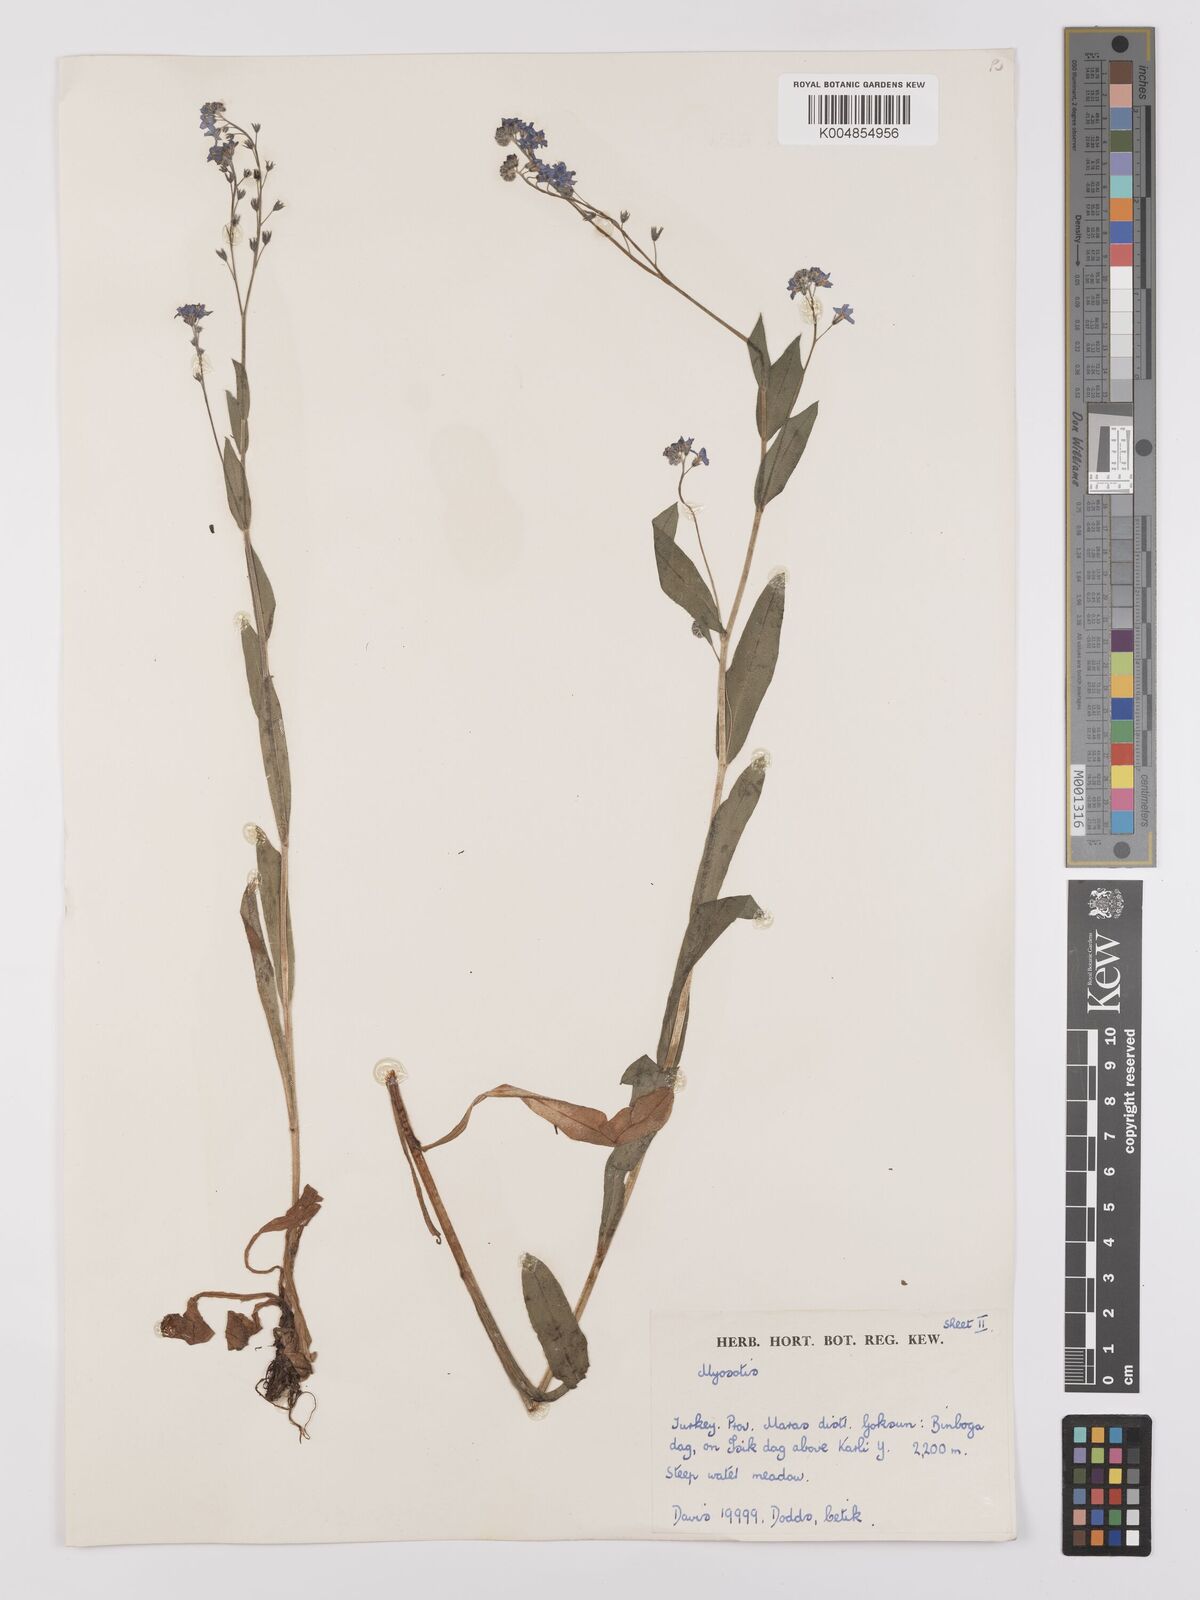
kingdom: Plantae
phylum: Tracheophyta
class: Magnoliopsida
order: Boraginales
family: Boraginaceae
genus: Myosotis
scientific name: Myosotis
